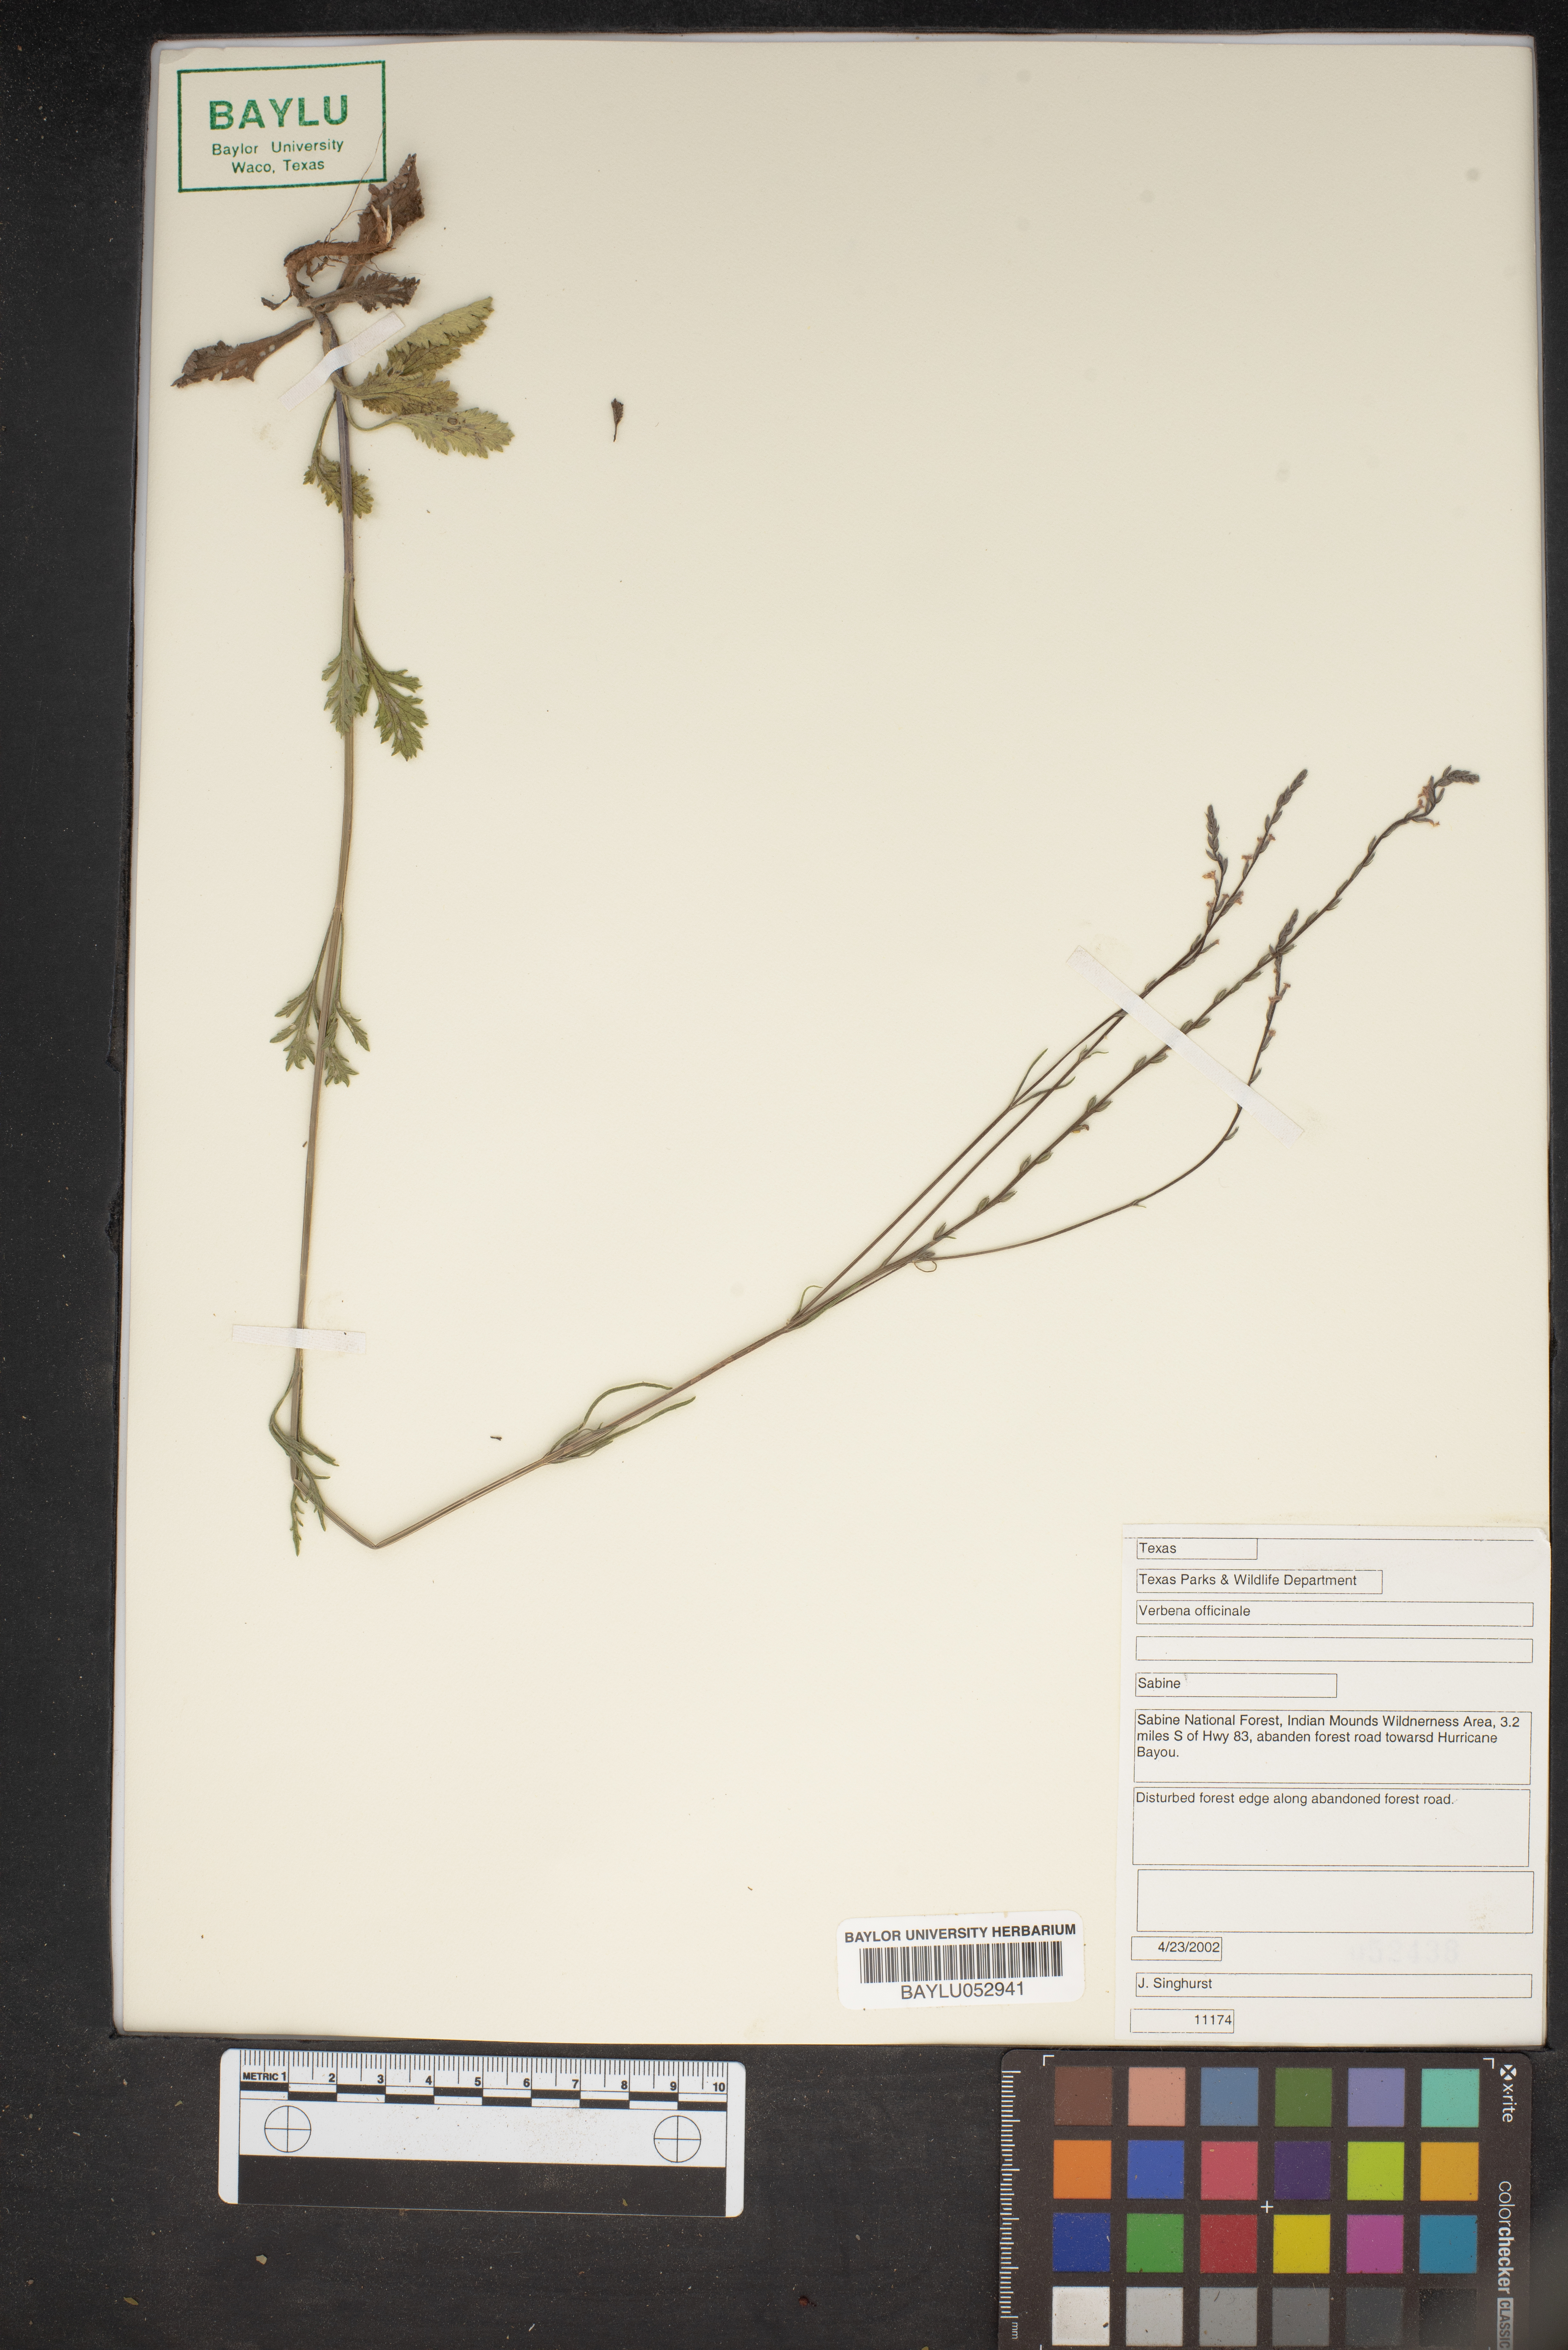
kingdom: Plantae
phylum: Tracheophyta
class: Magnoliopsida
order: Lamiales
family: Verbenaceae
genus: Verbena
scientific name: Verbena officinalis
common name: Vervain
